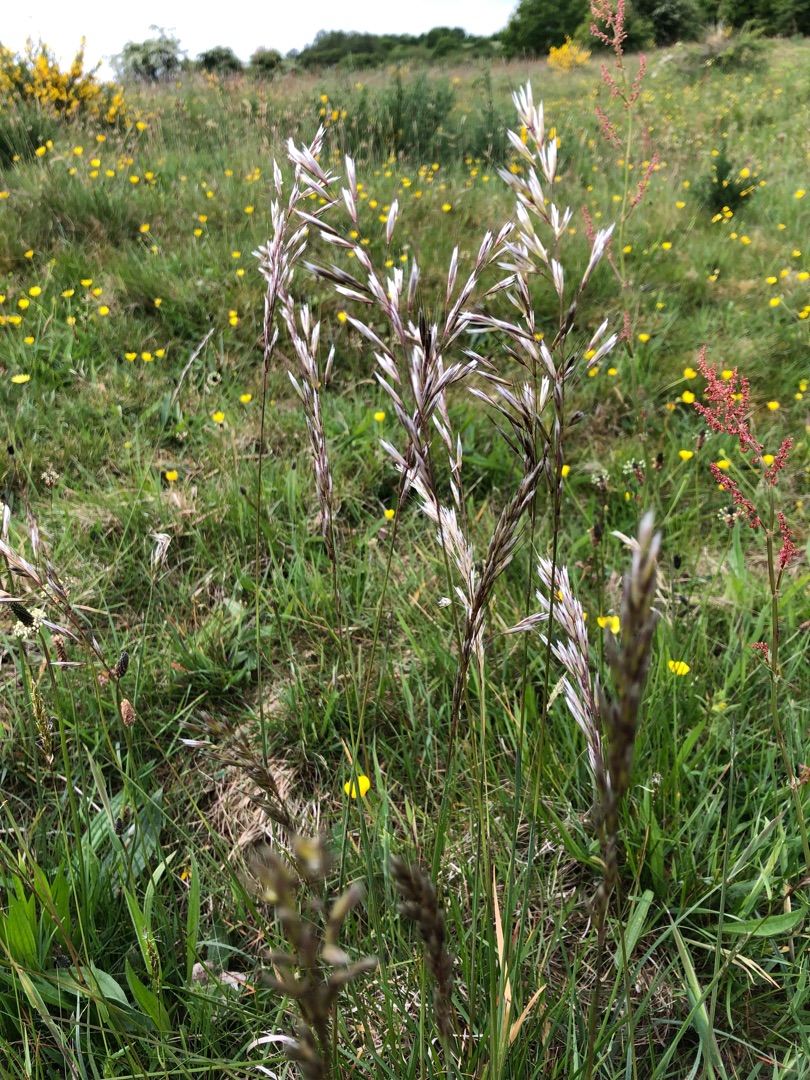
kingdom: Plantae
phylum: Tracheophyta
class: Liliopsida
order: Poales
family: Poaceae
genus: Helictochloa
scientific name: Helictochloa pratensis
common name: Eng-havre
